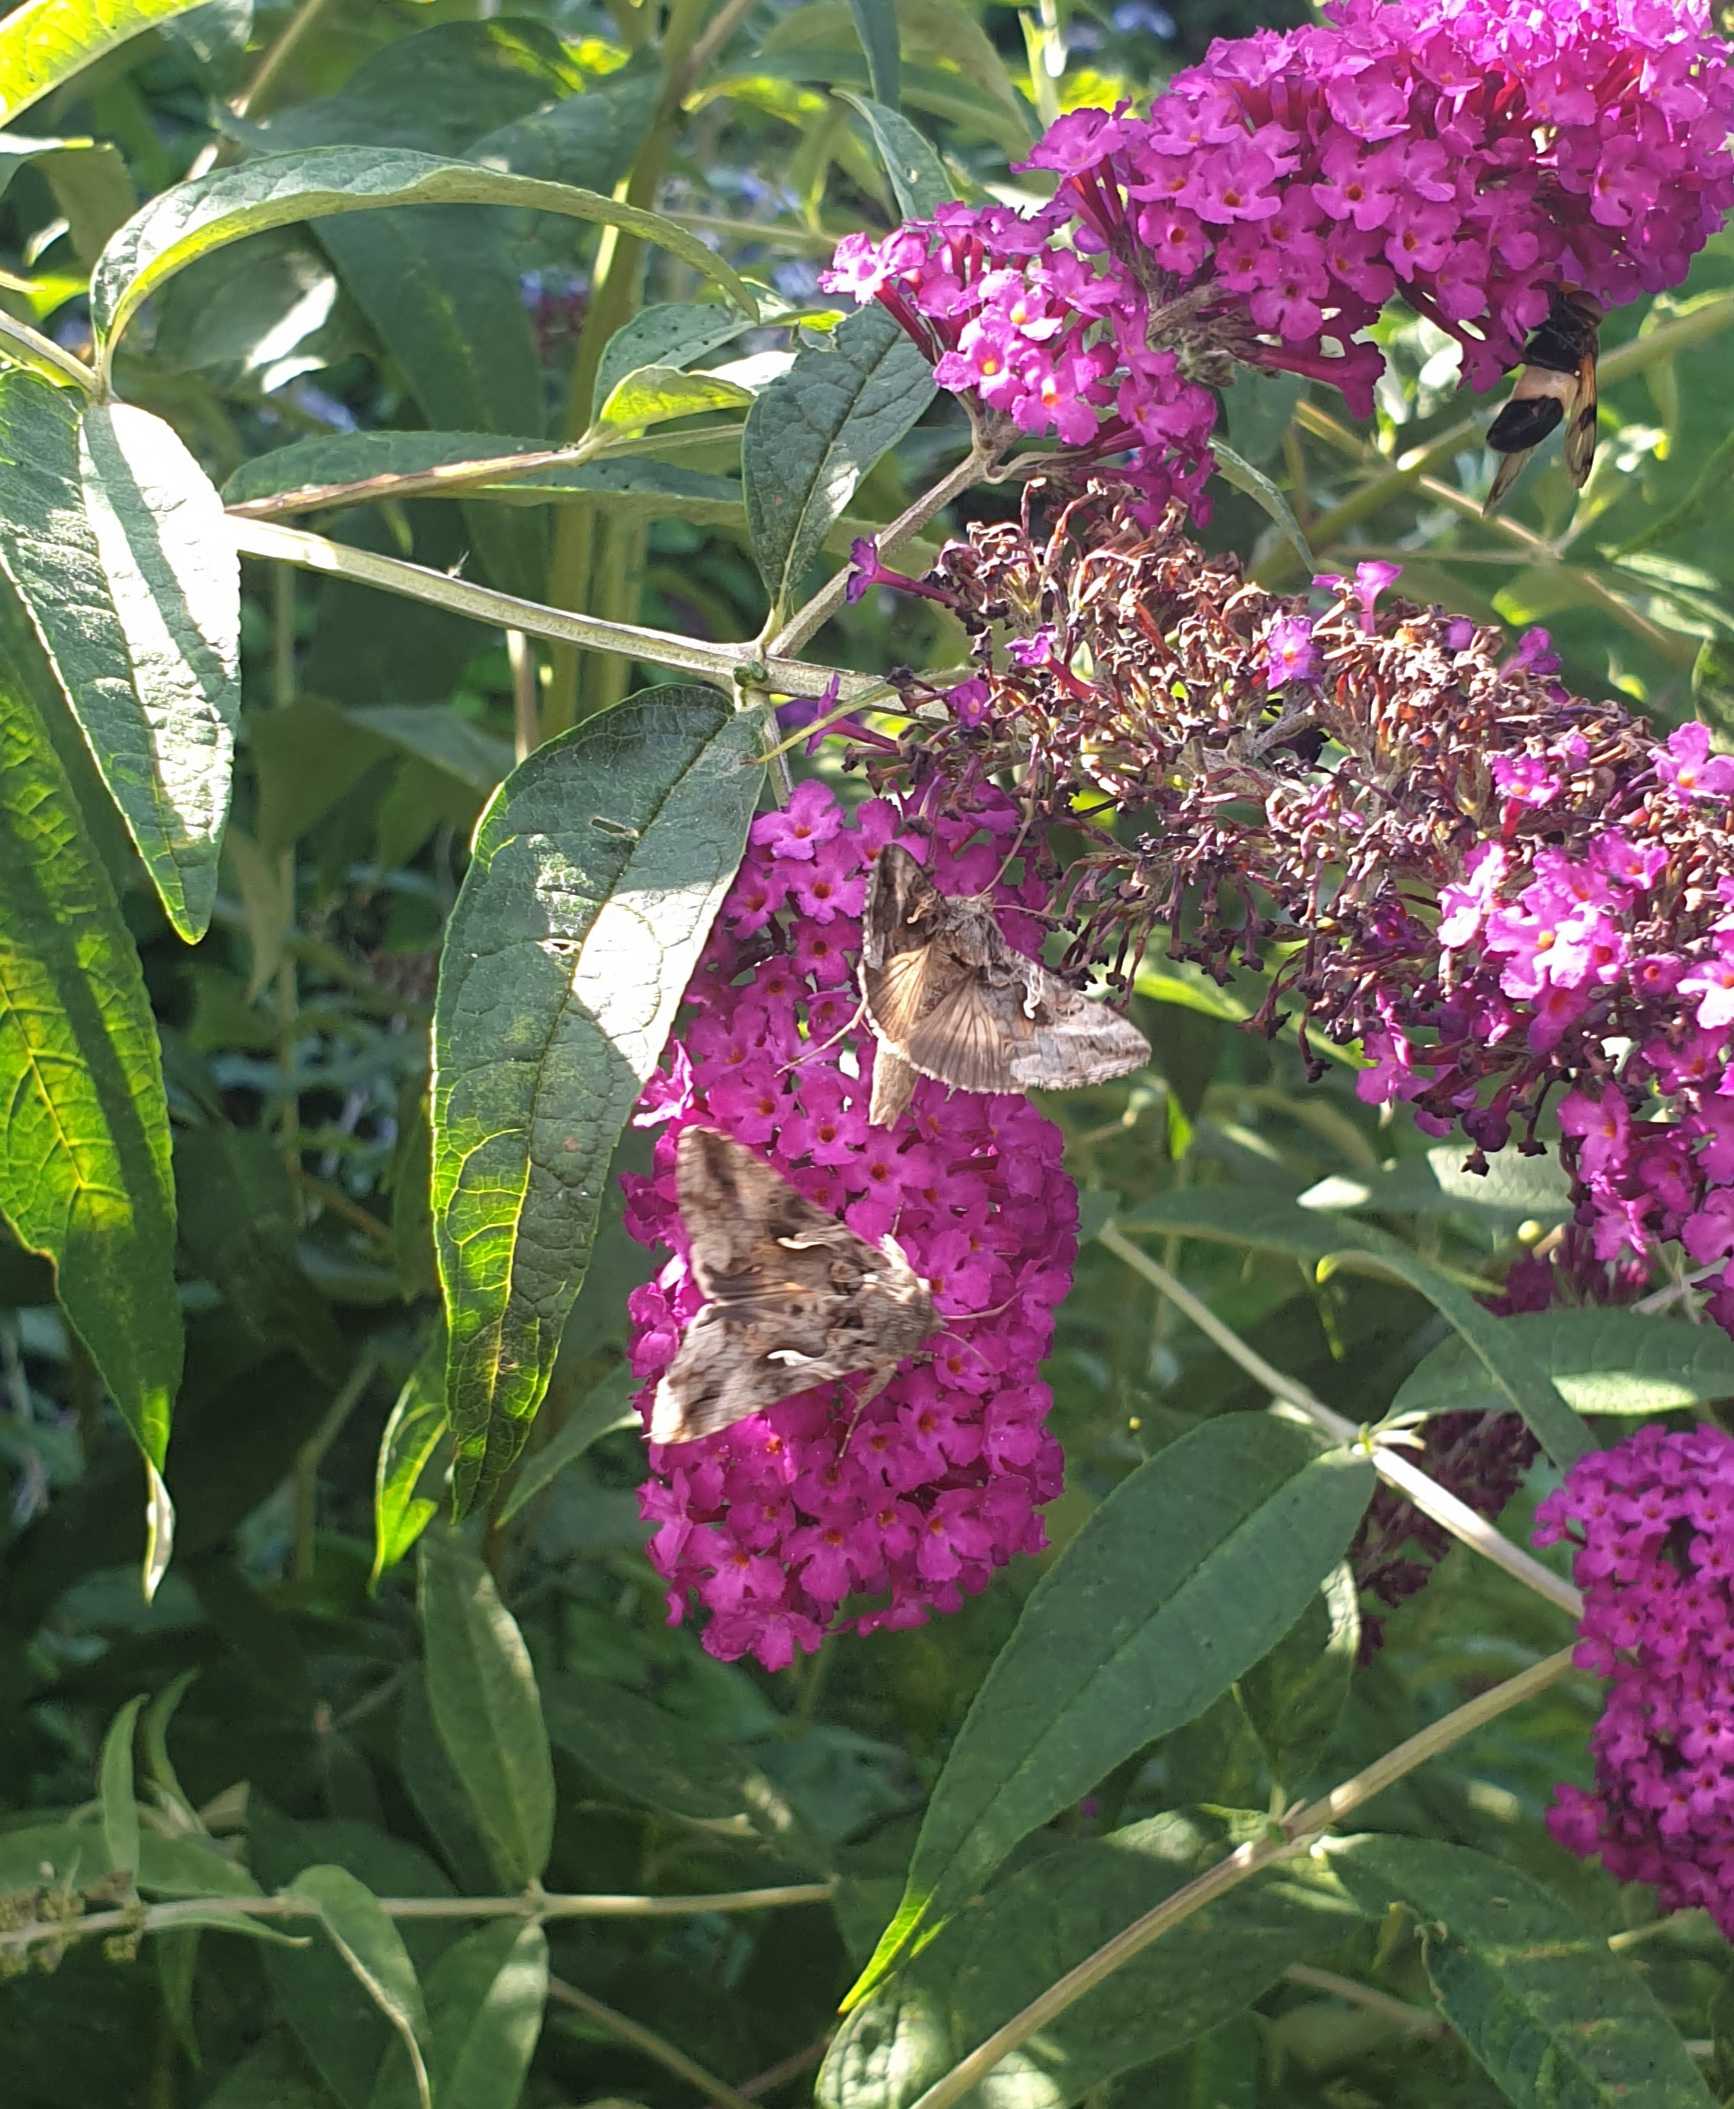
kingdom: Animalia
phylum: Arthropoda
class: Insecta
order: Lepidoptera
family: Noctuidae
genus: Autographa
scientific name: Autographa gamma
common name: Gammaugle
